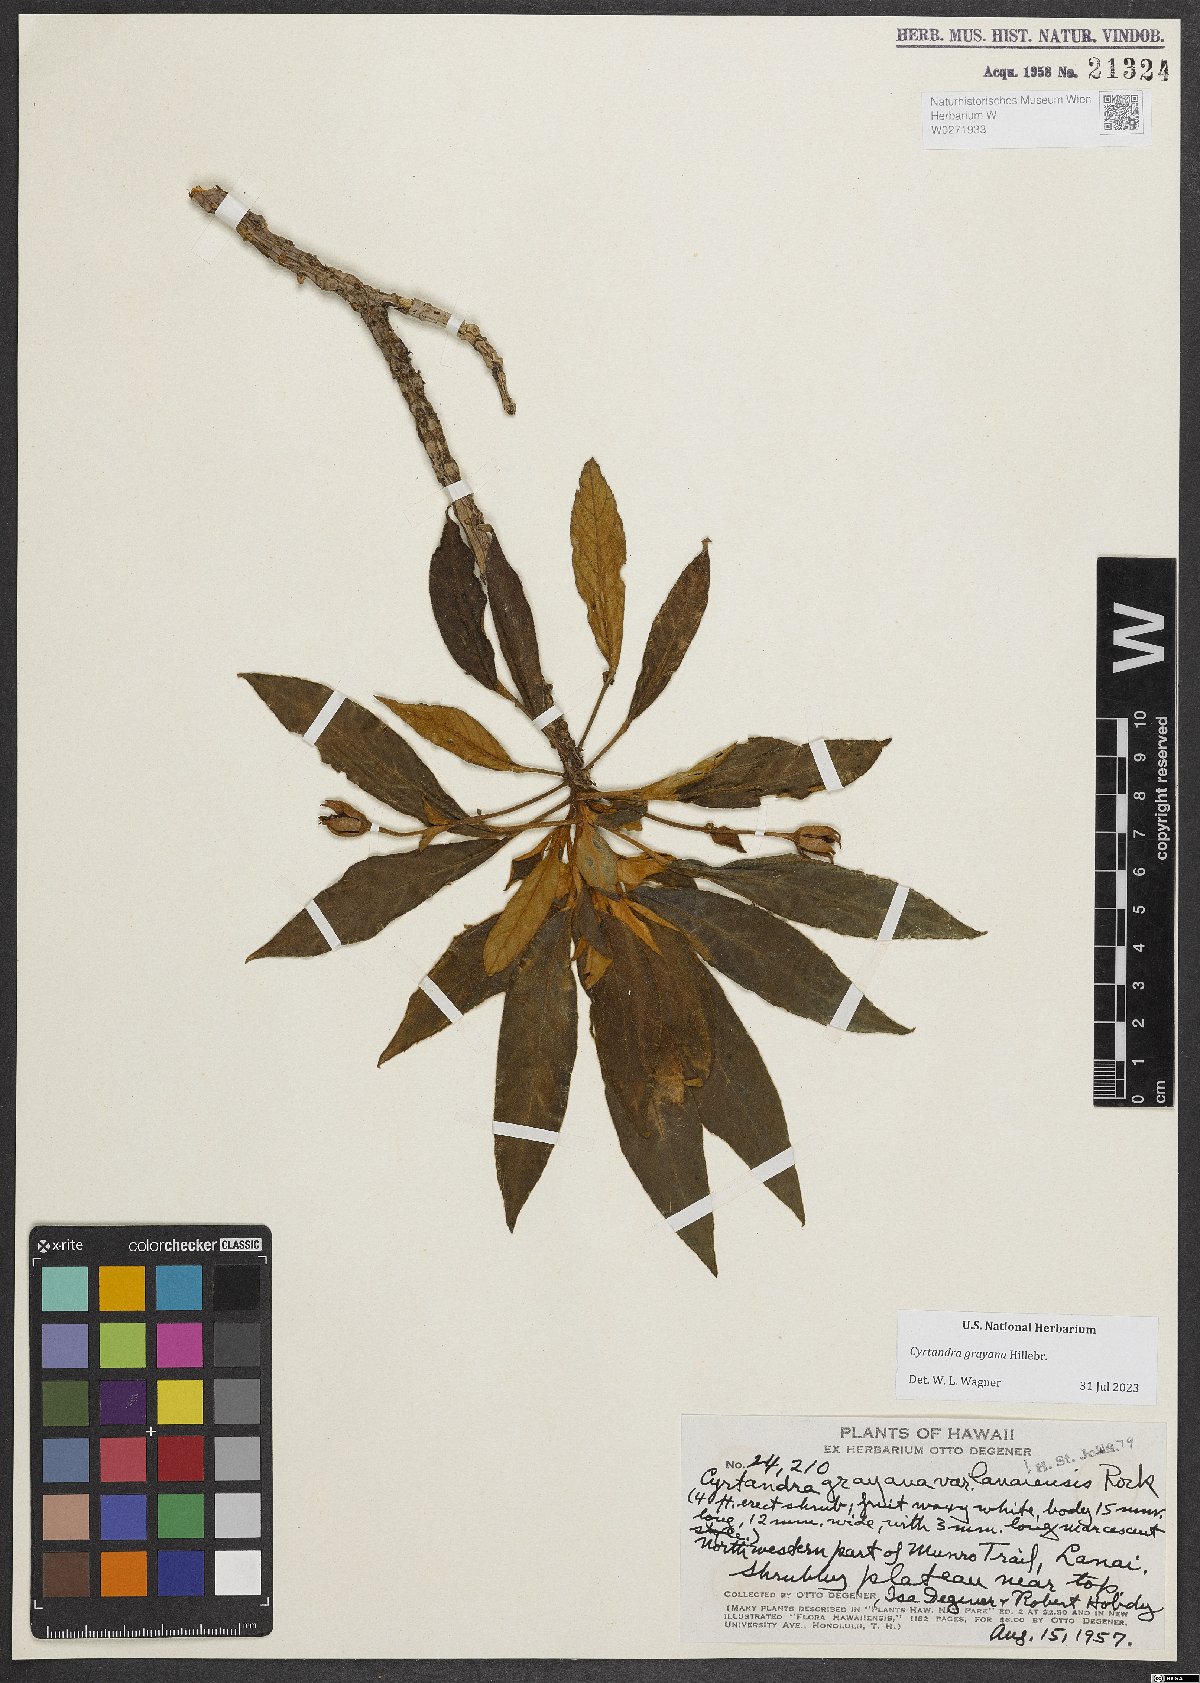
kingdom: Plantae
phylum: Tracheophyta
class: Magnoliopsida
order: Lamiales
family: Gesneriaceae
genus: Cyrtandra
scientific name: Cyrtandra grayana
